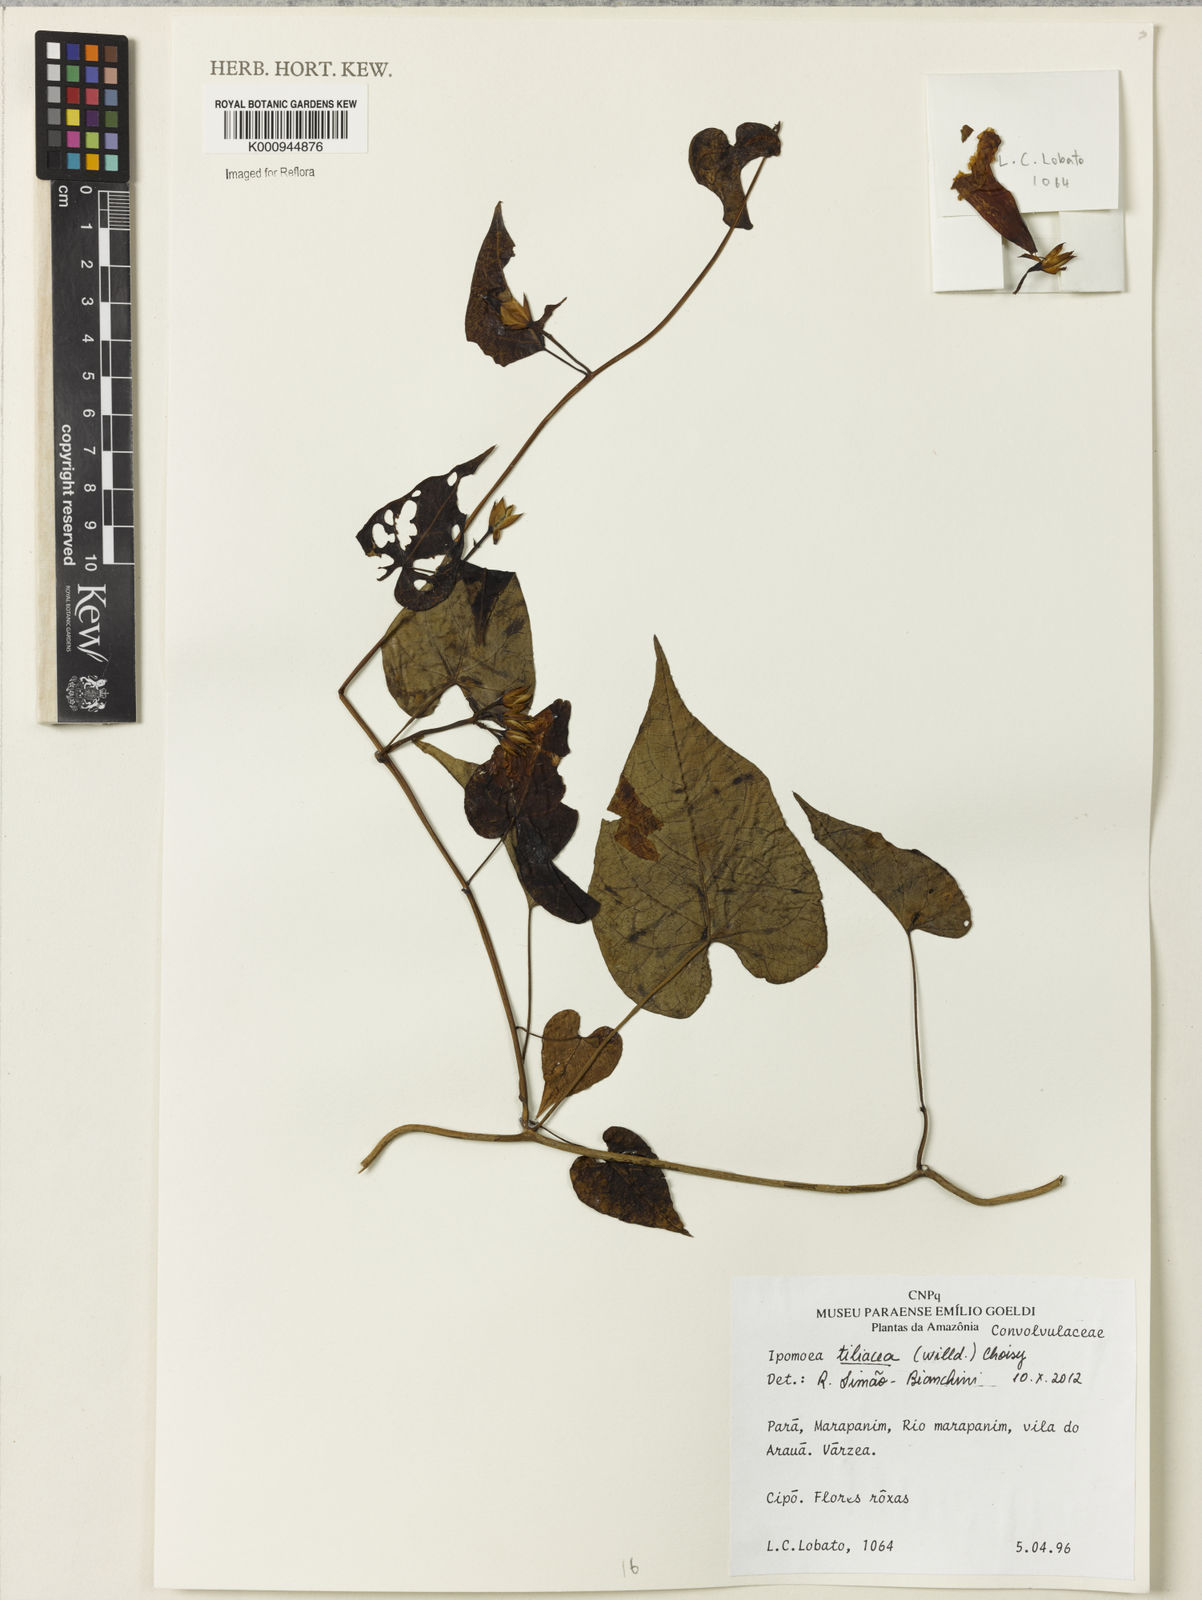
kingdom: Plantae
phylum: Tracheophyta
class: Magnoliopsida
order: Solanales
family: Convolvulaceae
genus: Ipomoea
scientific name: Ipomoea tiliacea
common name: Wild potato vine
